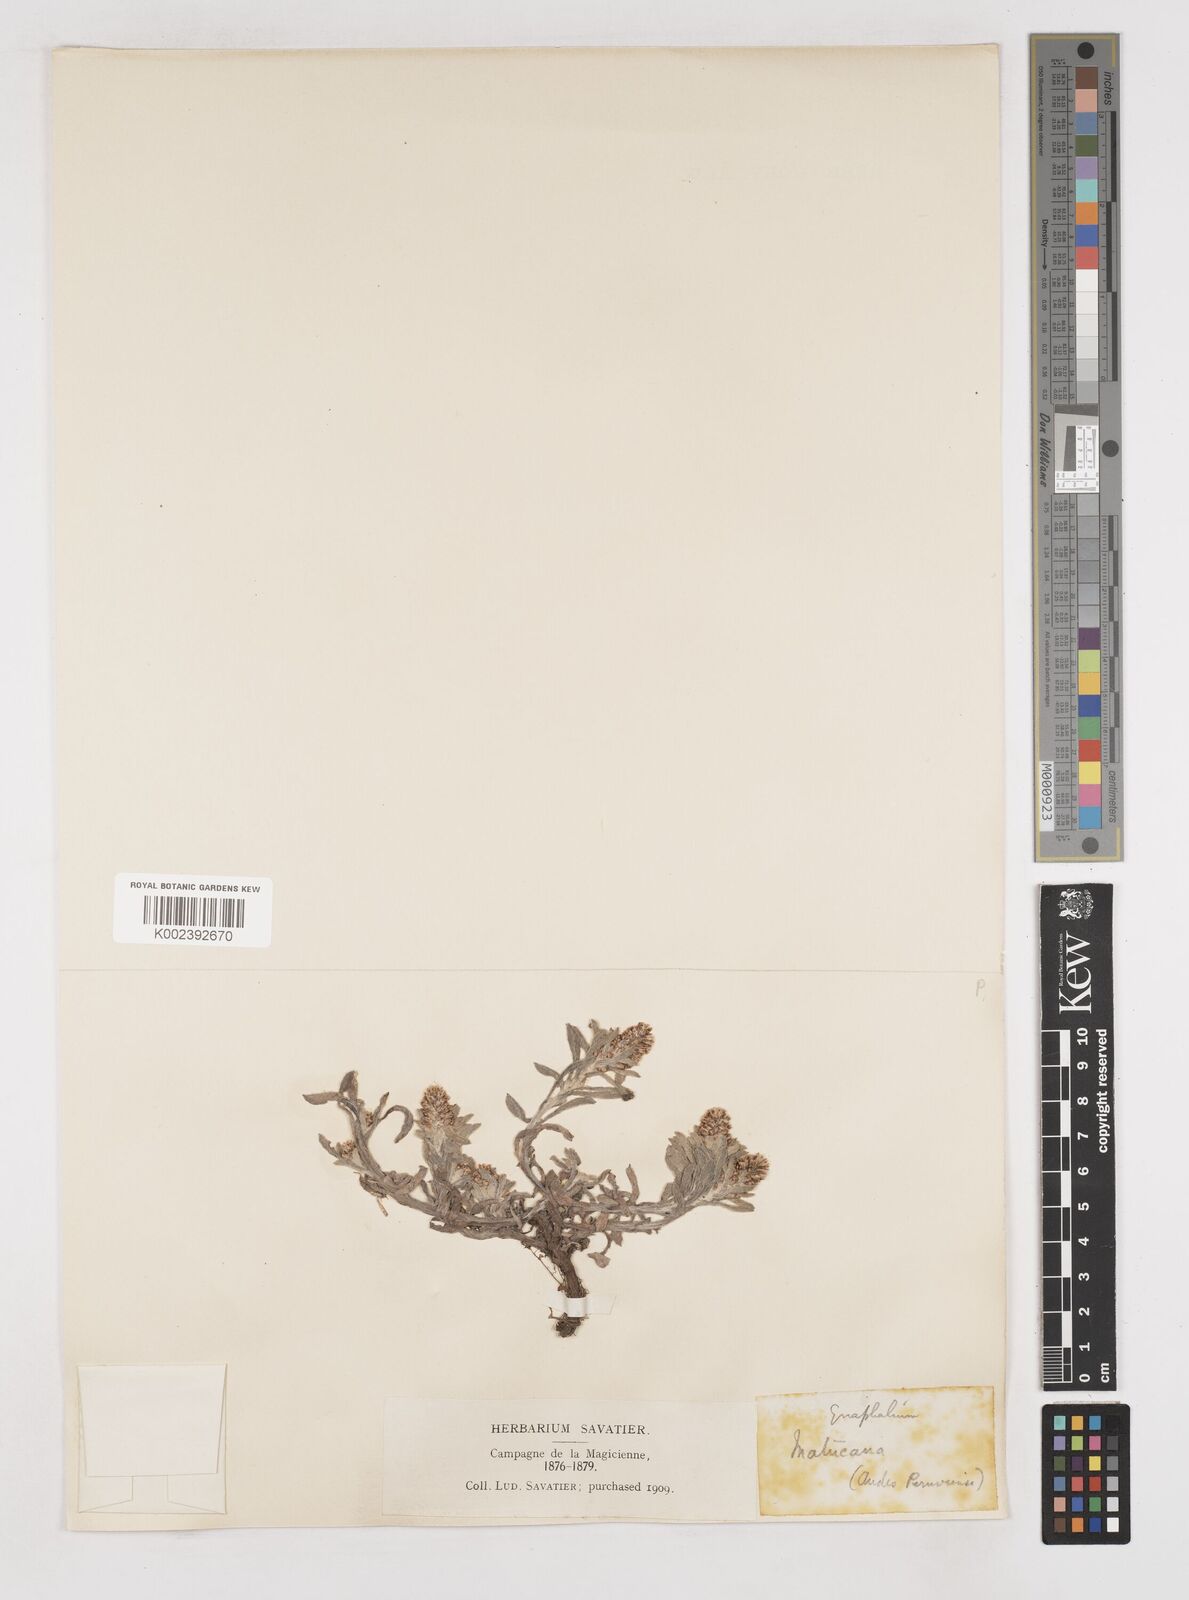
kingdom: Plantae
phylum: Tracheophyta
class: Magnoliopsida
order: Asterales
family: Asteraceae
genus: Gnaphalium
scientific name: Gnaphalium
